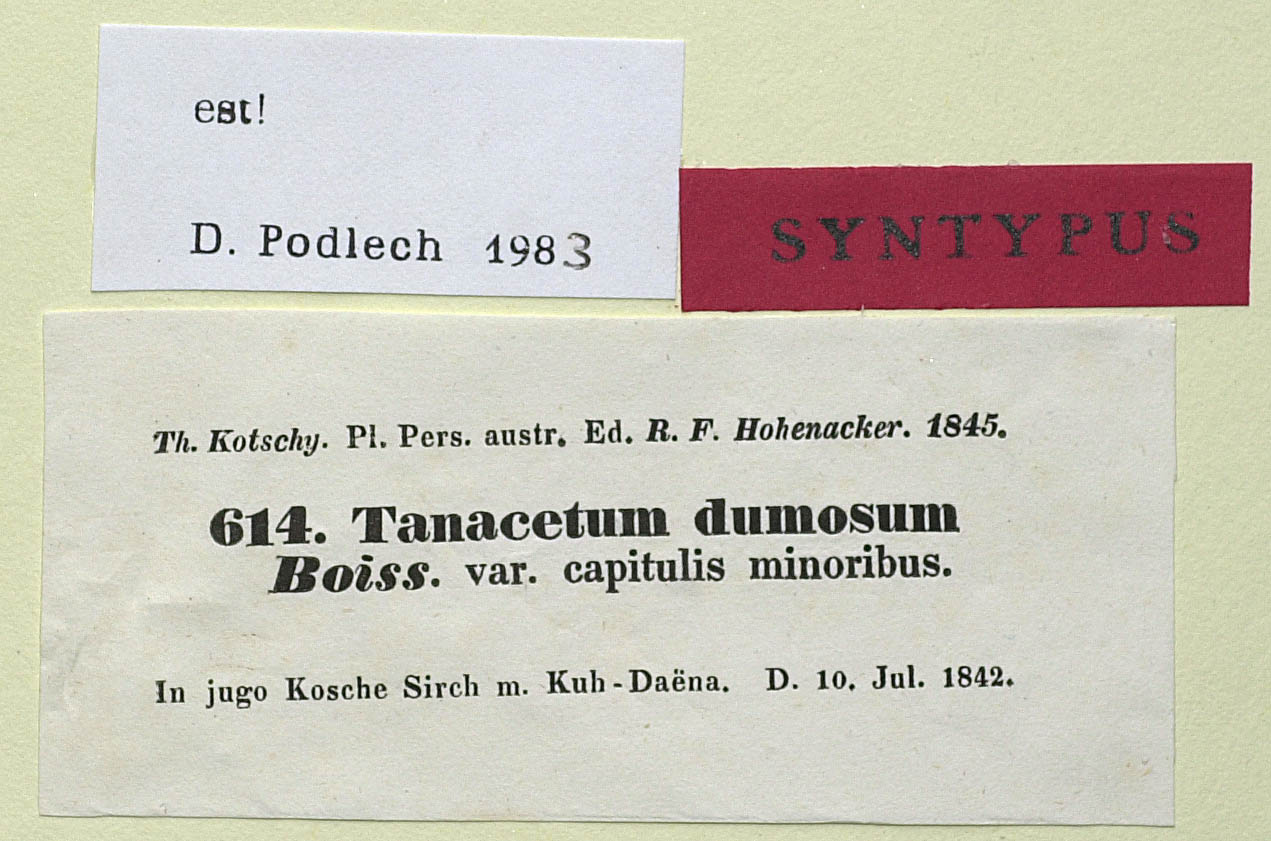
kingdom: Plantae
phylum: Tracheophyta
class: Magnoliopsida
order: Asterales
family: Asteraceae
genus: Tanacetum
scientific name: Tanacetum dumosum
